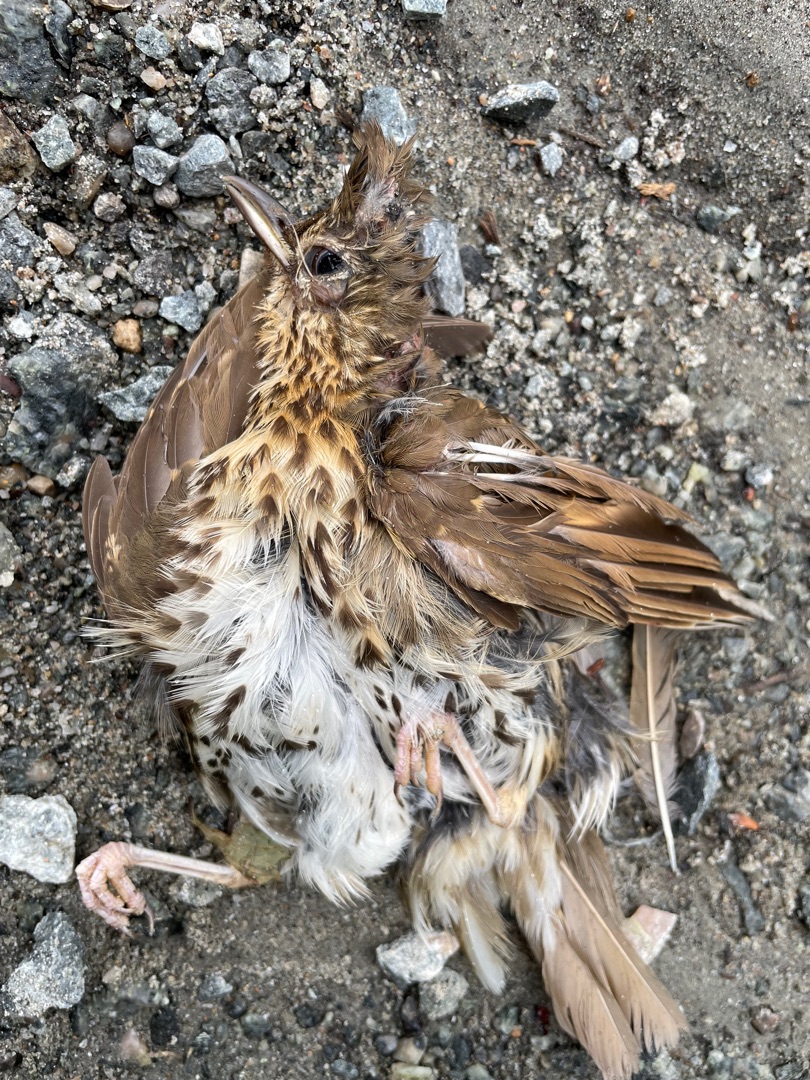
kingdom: Animalia
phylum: Chordata
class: Aves
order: Passeriformes
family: Turdidae
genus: Turdus
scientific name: Turdus philomelos
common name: Sangdrossel
